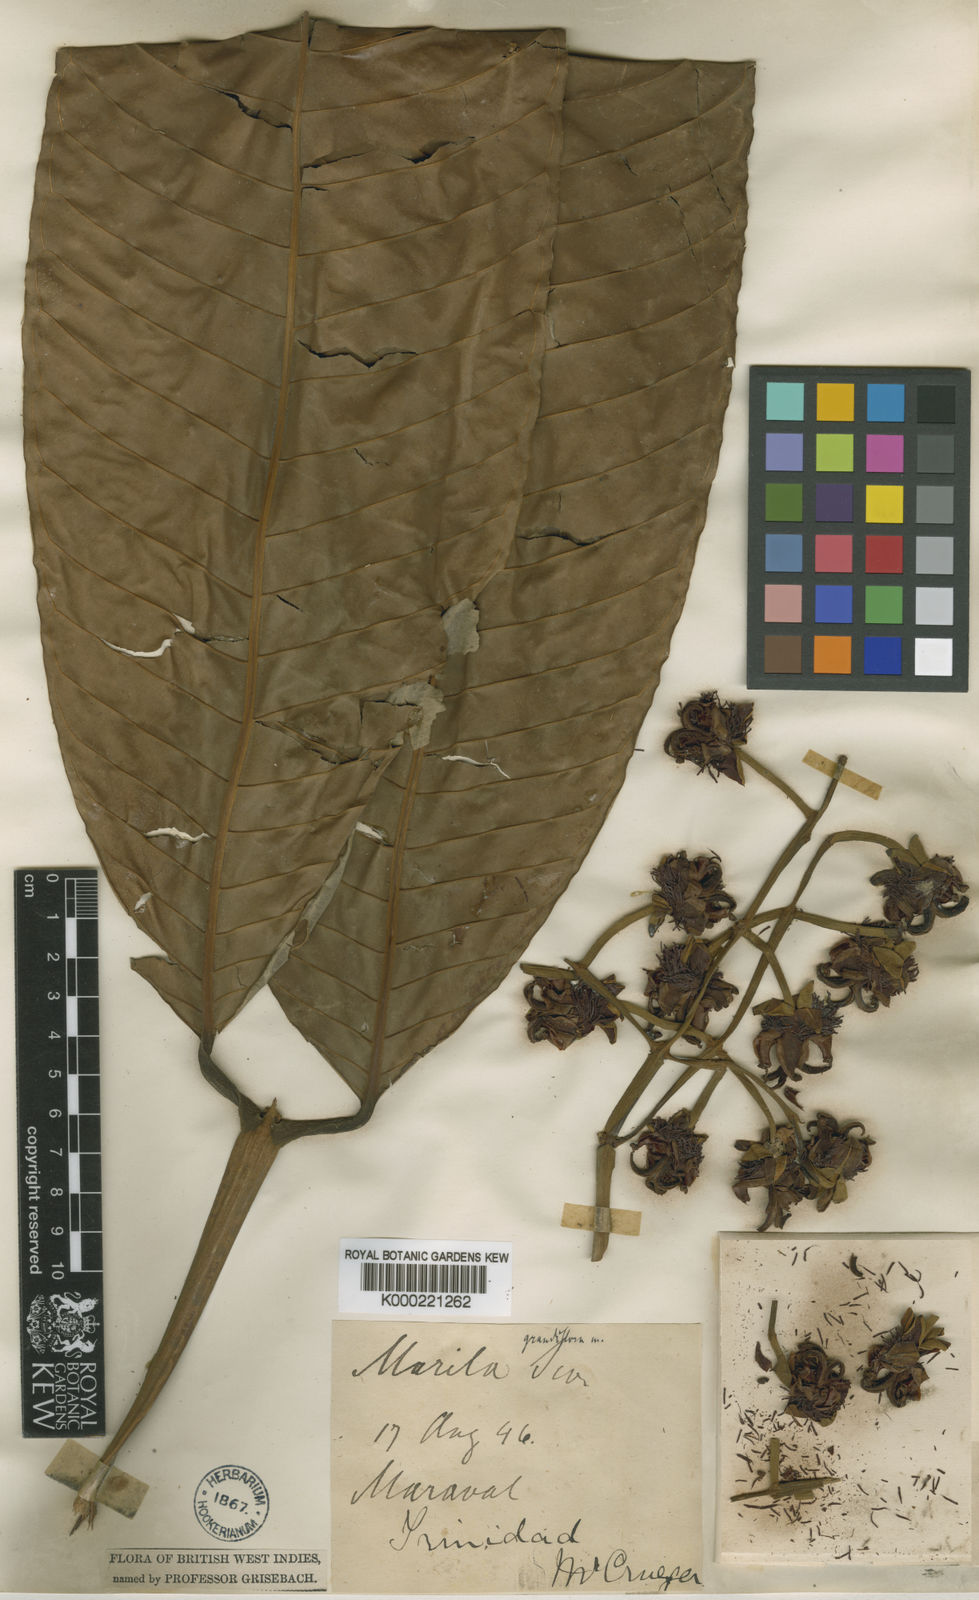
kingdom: Plantae
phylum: Tracheophyta
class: Magnoliopsida
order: Malpighiales
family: Calophyllaceae
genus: Marila
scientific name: Marila grandiflora
